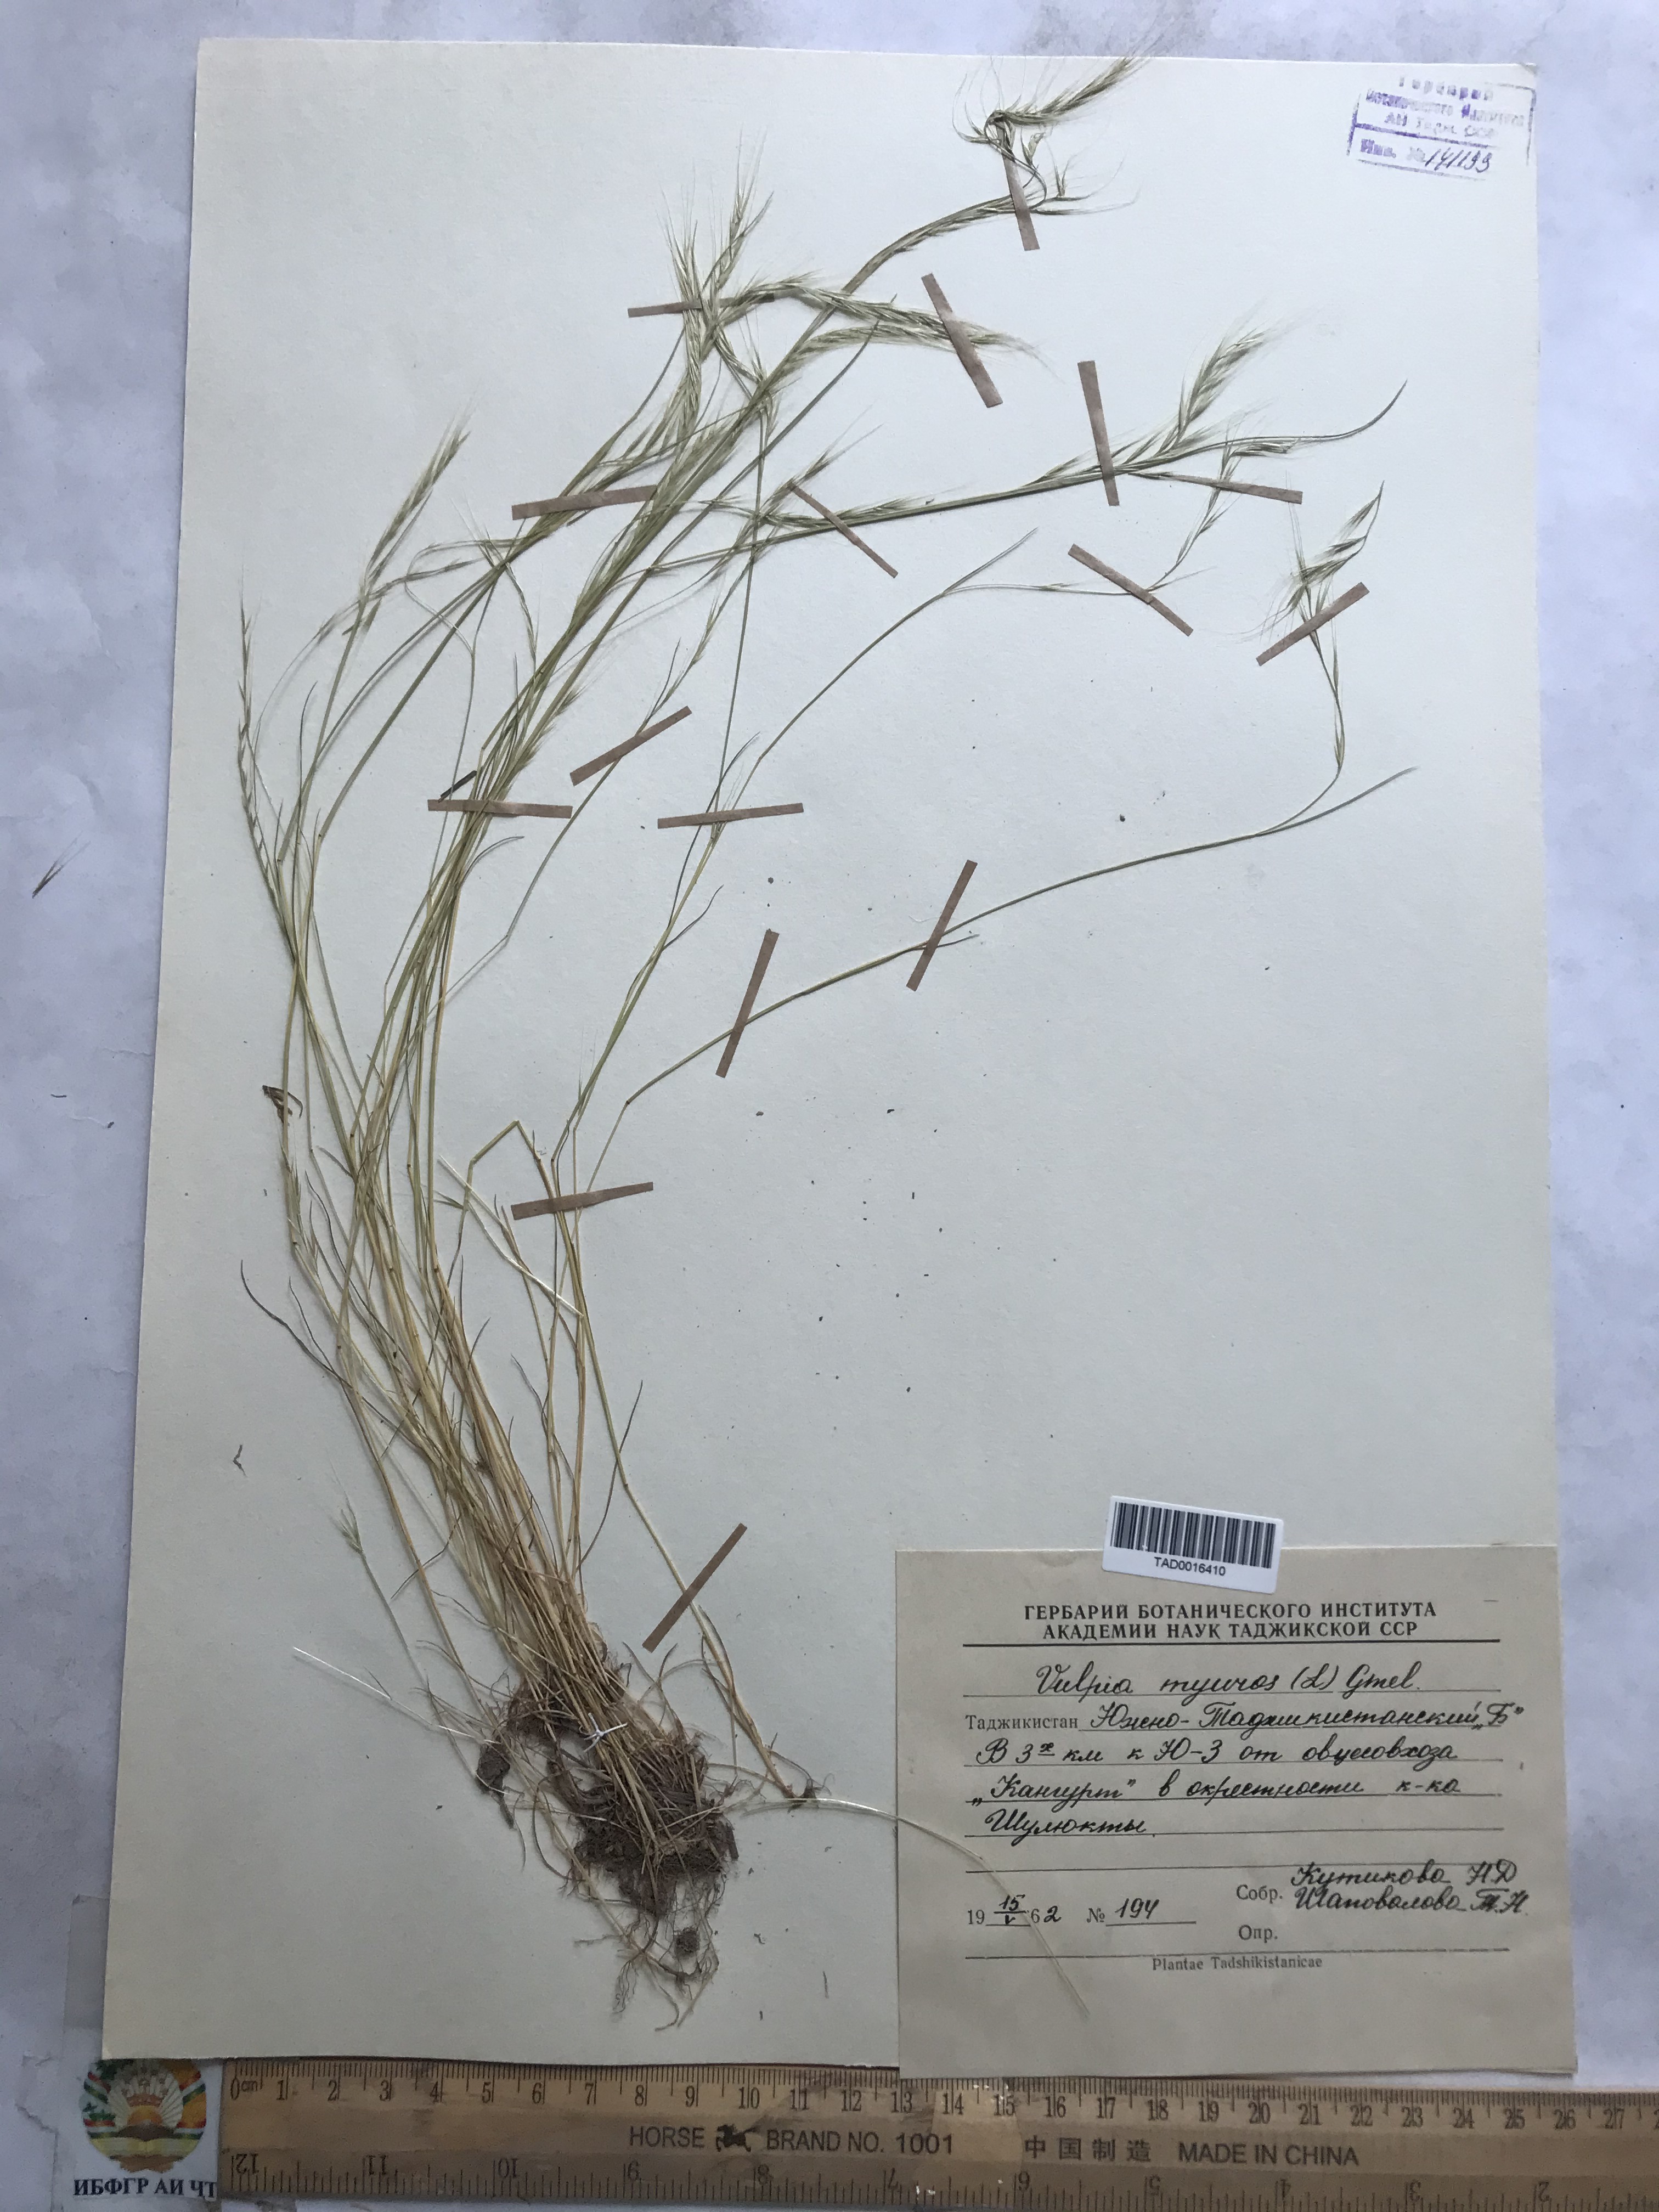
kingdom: Plantae
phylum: Tracheophyta
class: Liliopsida
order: Poales
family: Poaceae
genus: Festuca
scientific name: Festuca myuros
